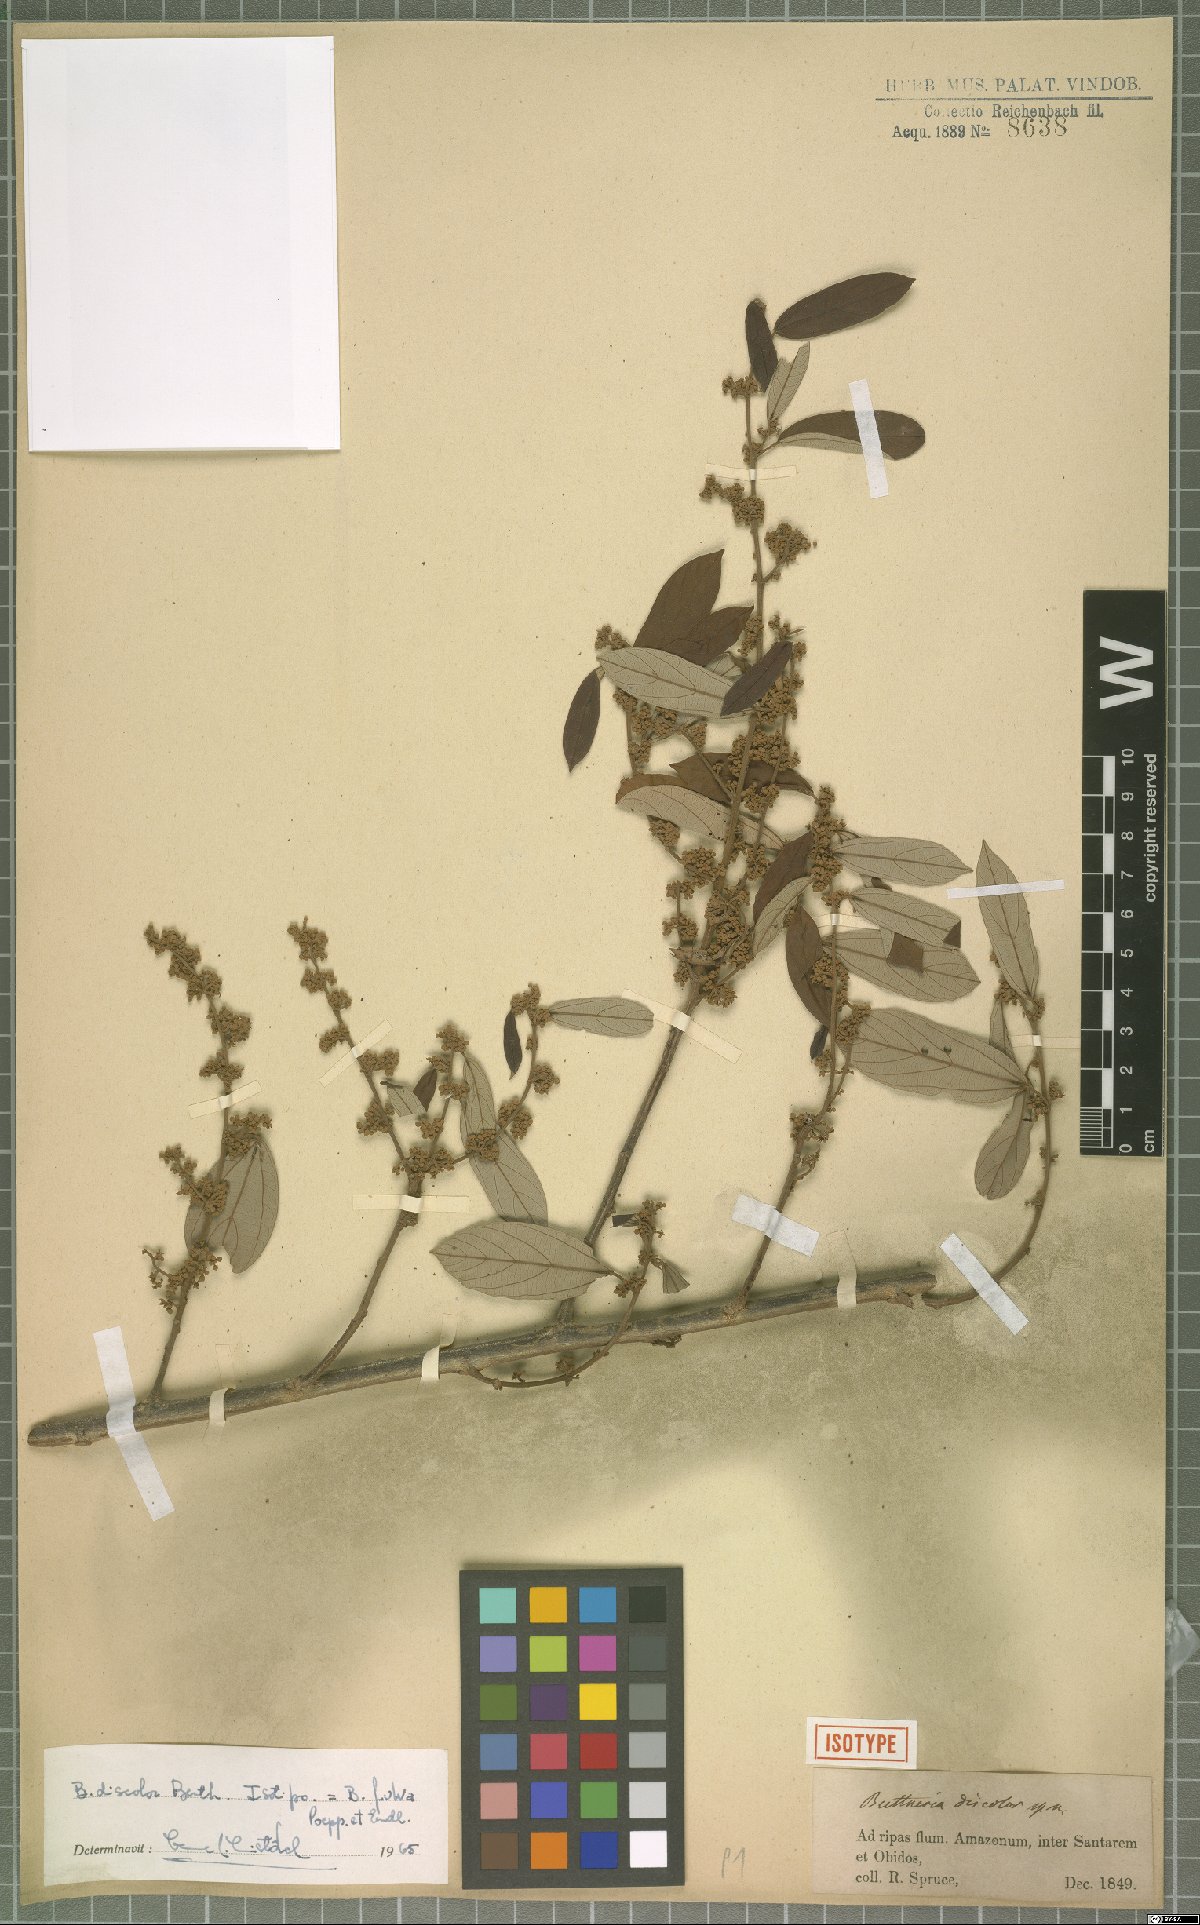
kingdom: Plantae
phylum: Tracheophyta
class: Magnoliopsida
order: Malvales
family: Malvaceae
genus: Byttneria
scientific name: Byttneria fulva
